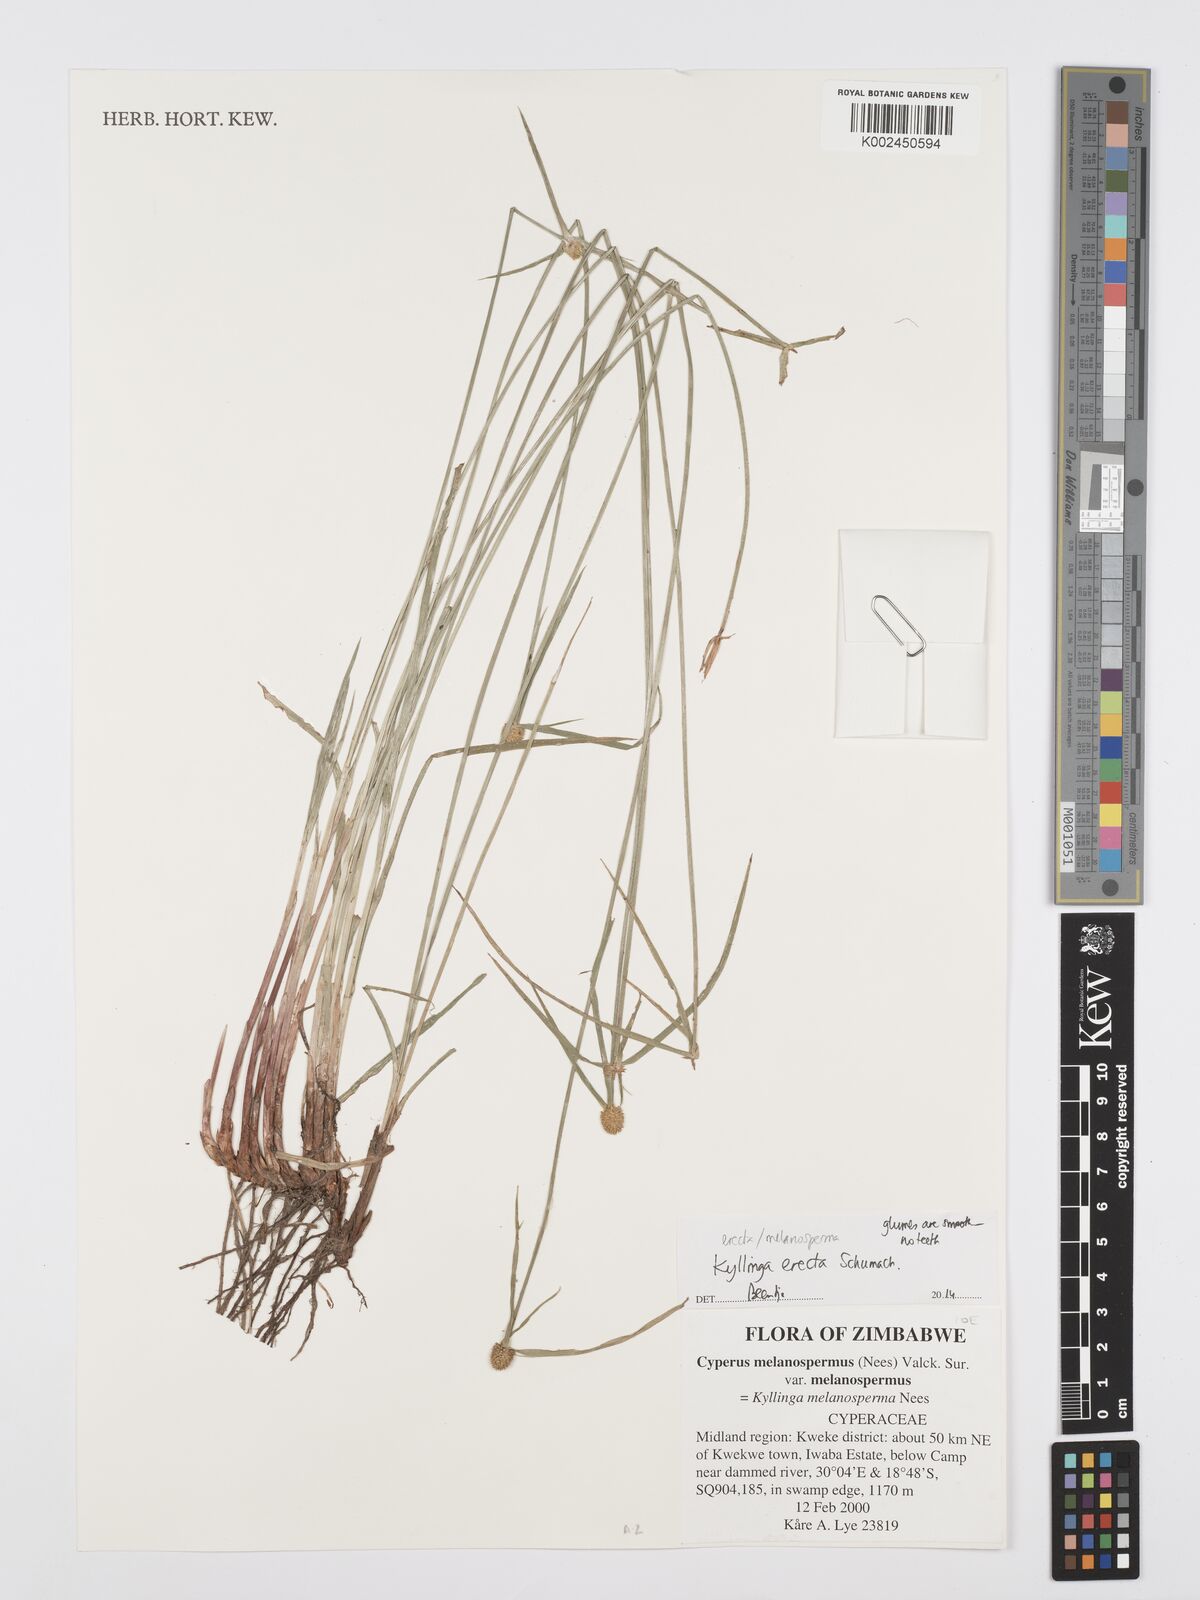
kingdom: Plantae
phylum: Tracheophyta
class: Liliopsida
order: Poales
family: Cyperaceae
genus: Cyperus
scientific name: Cyperus erectus
